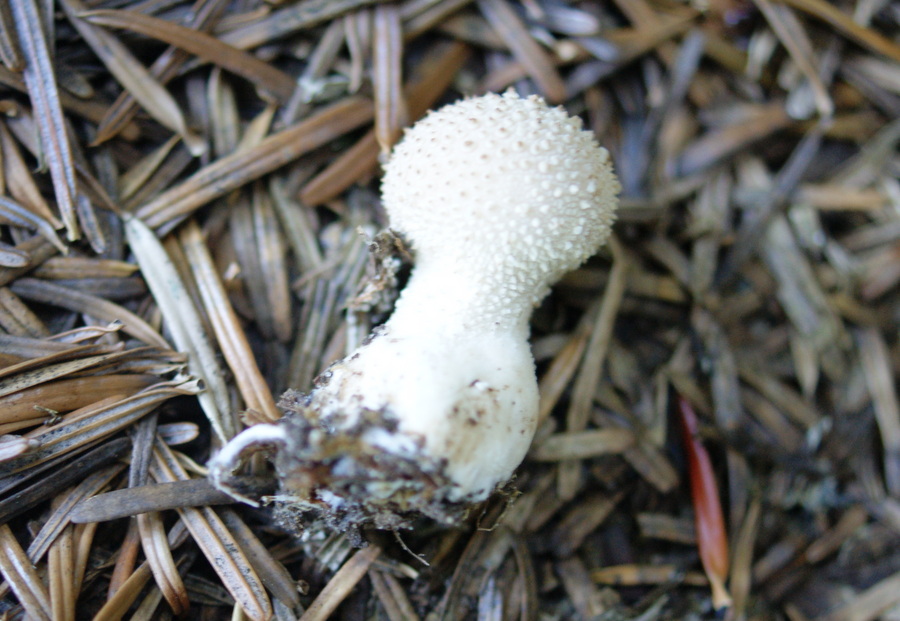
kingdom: Fungi
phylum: Basidiomycota
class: Agaricomycetes
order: Agaricales
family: Lycoperdaceae
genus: Lycoperdon
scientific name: Lycoperdon perlatum
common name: krystal-støvbold
